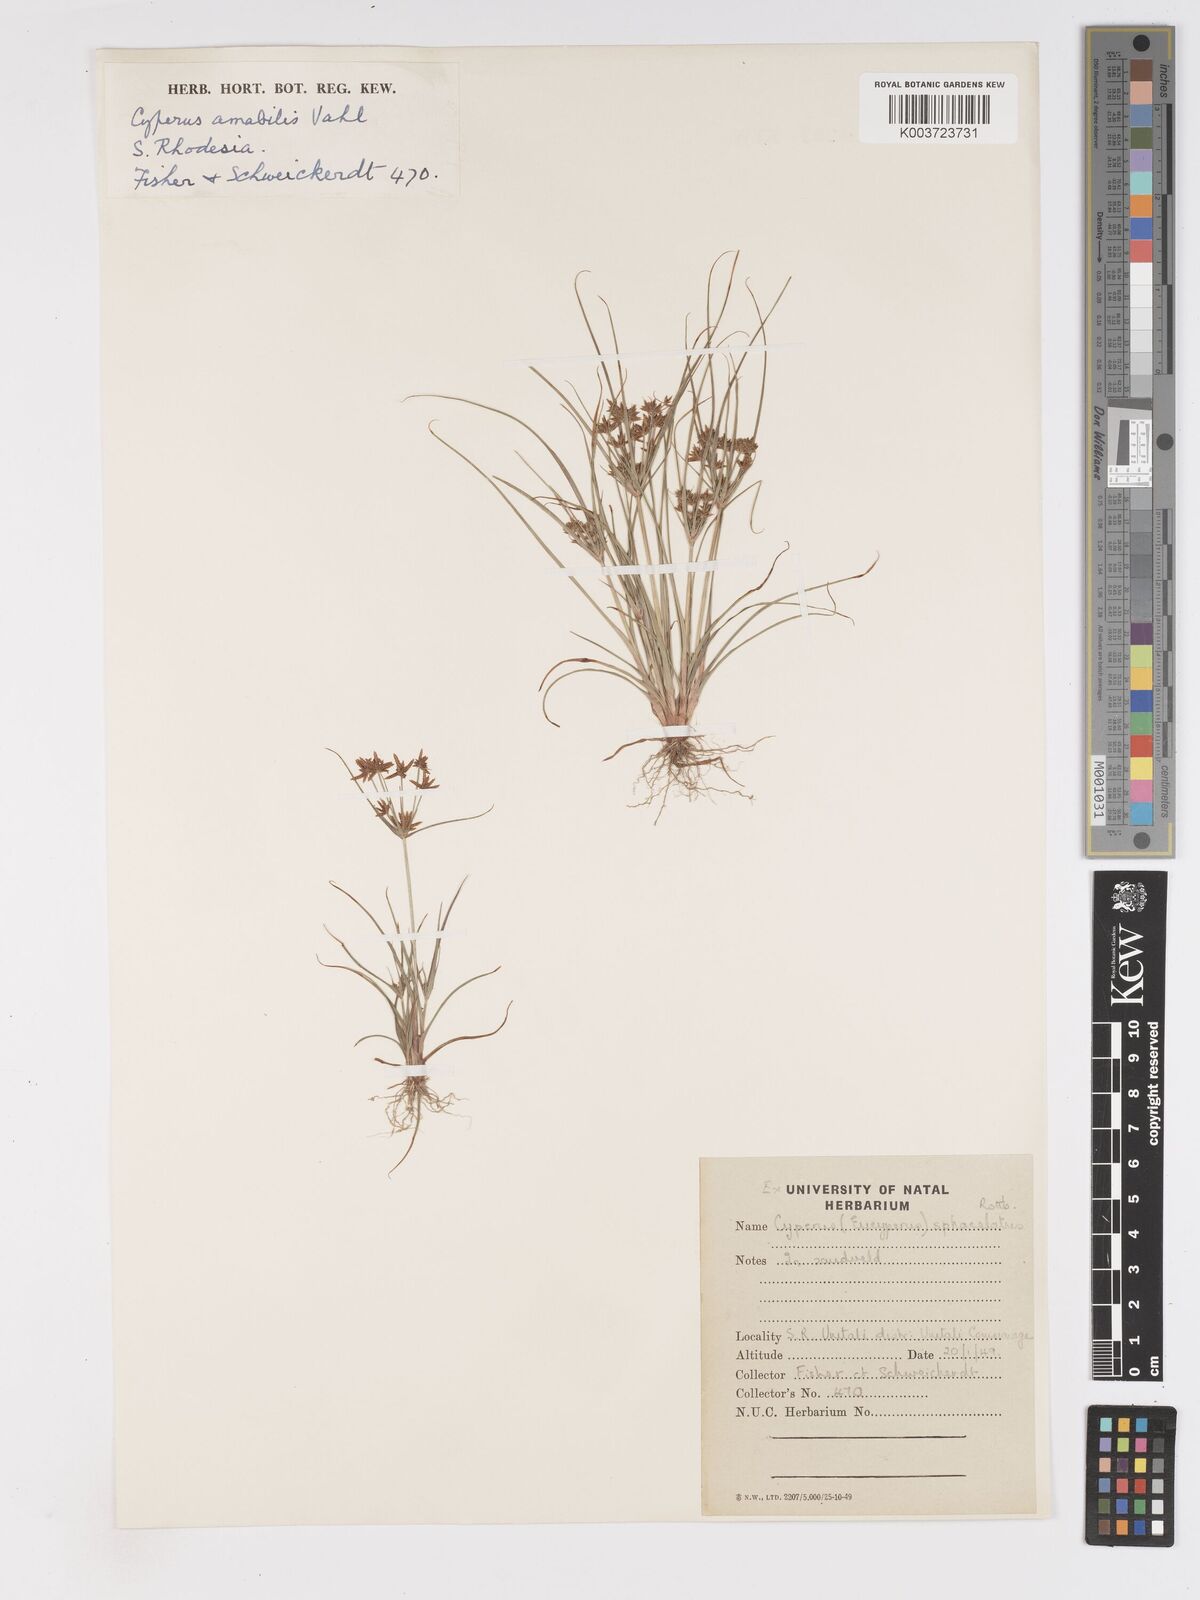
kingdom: Plantae
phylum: Tracheophyta
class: Liliopsida
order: Poales
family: Cyperaceae
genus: Cyperus
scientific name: Cyperus amabilis
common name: Foothill flat sedge
